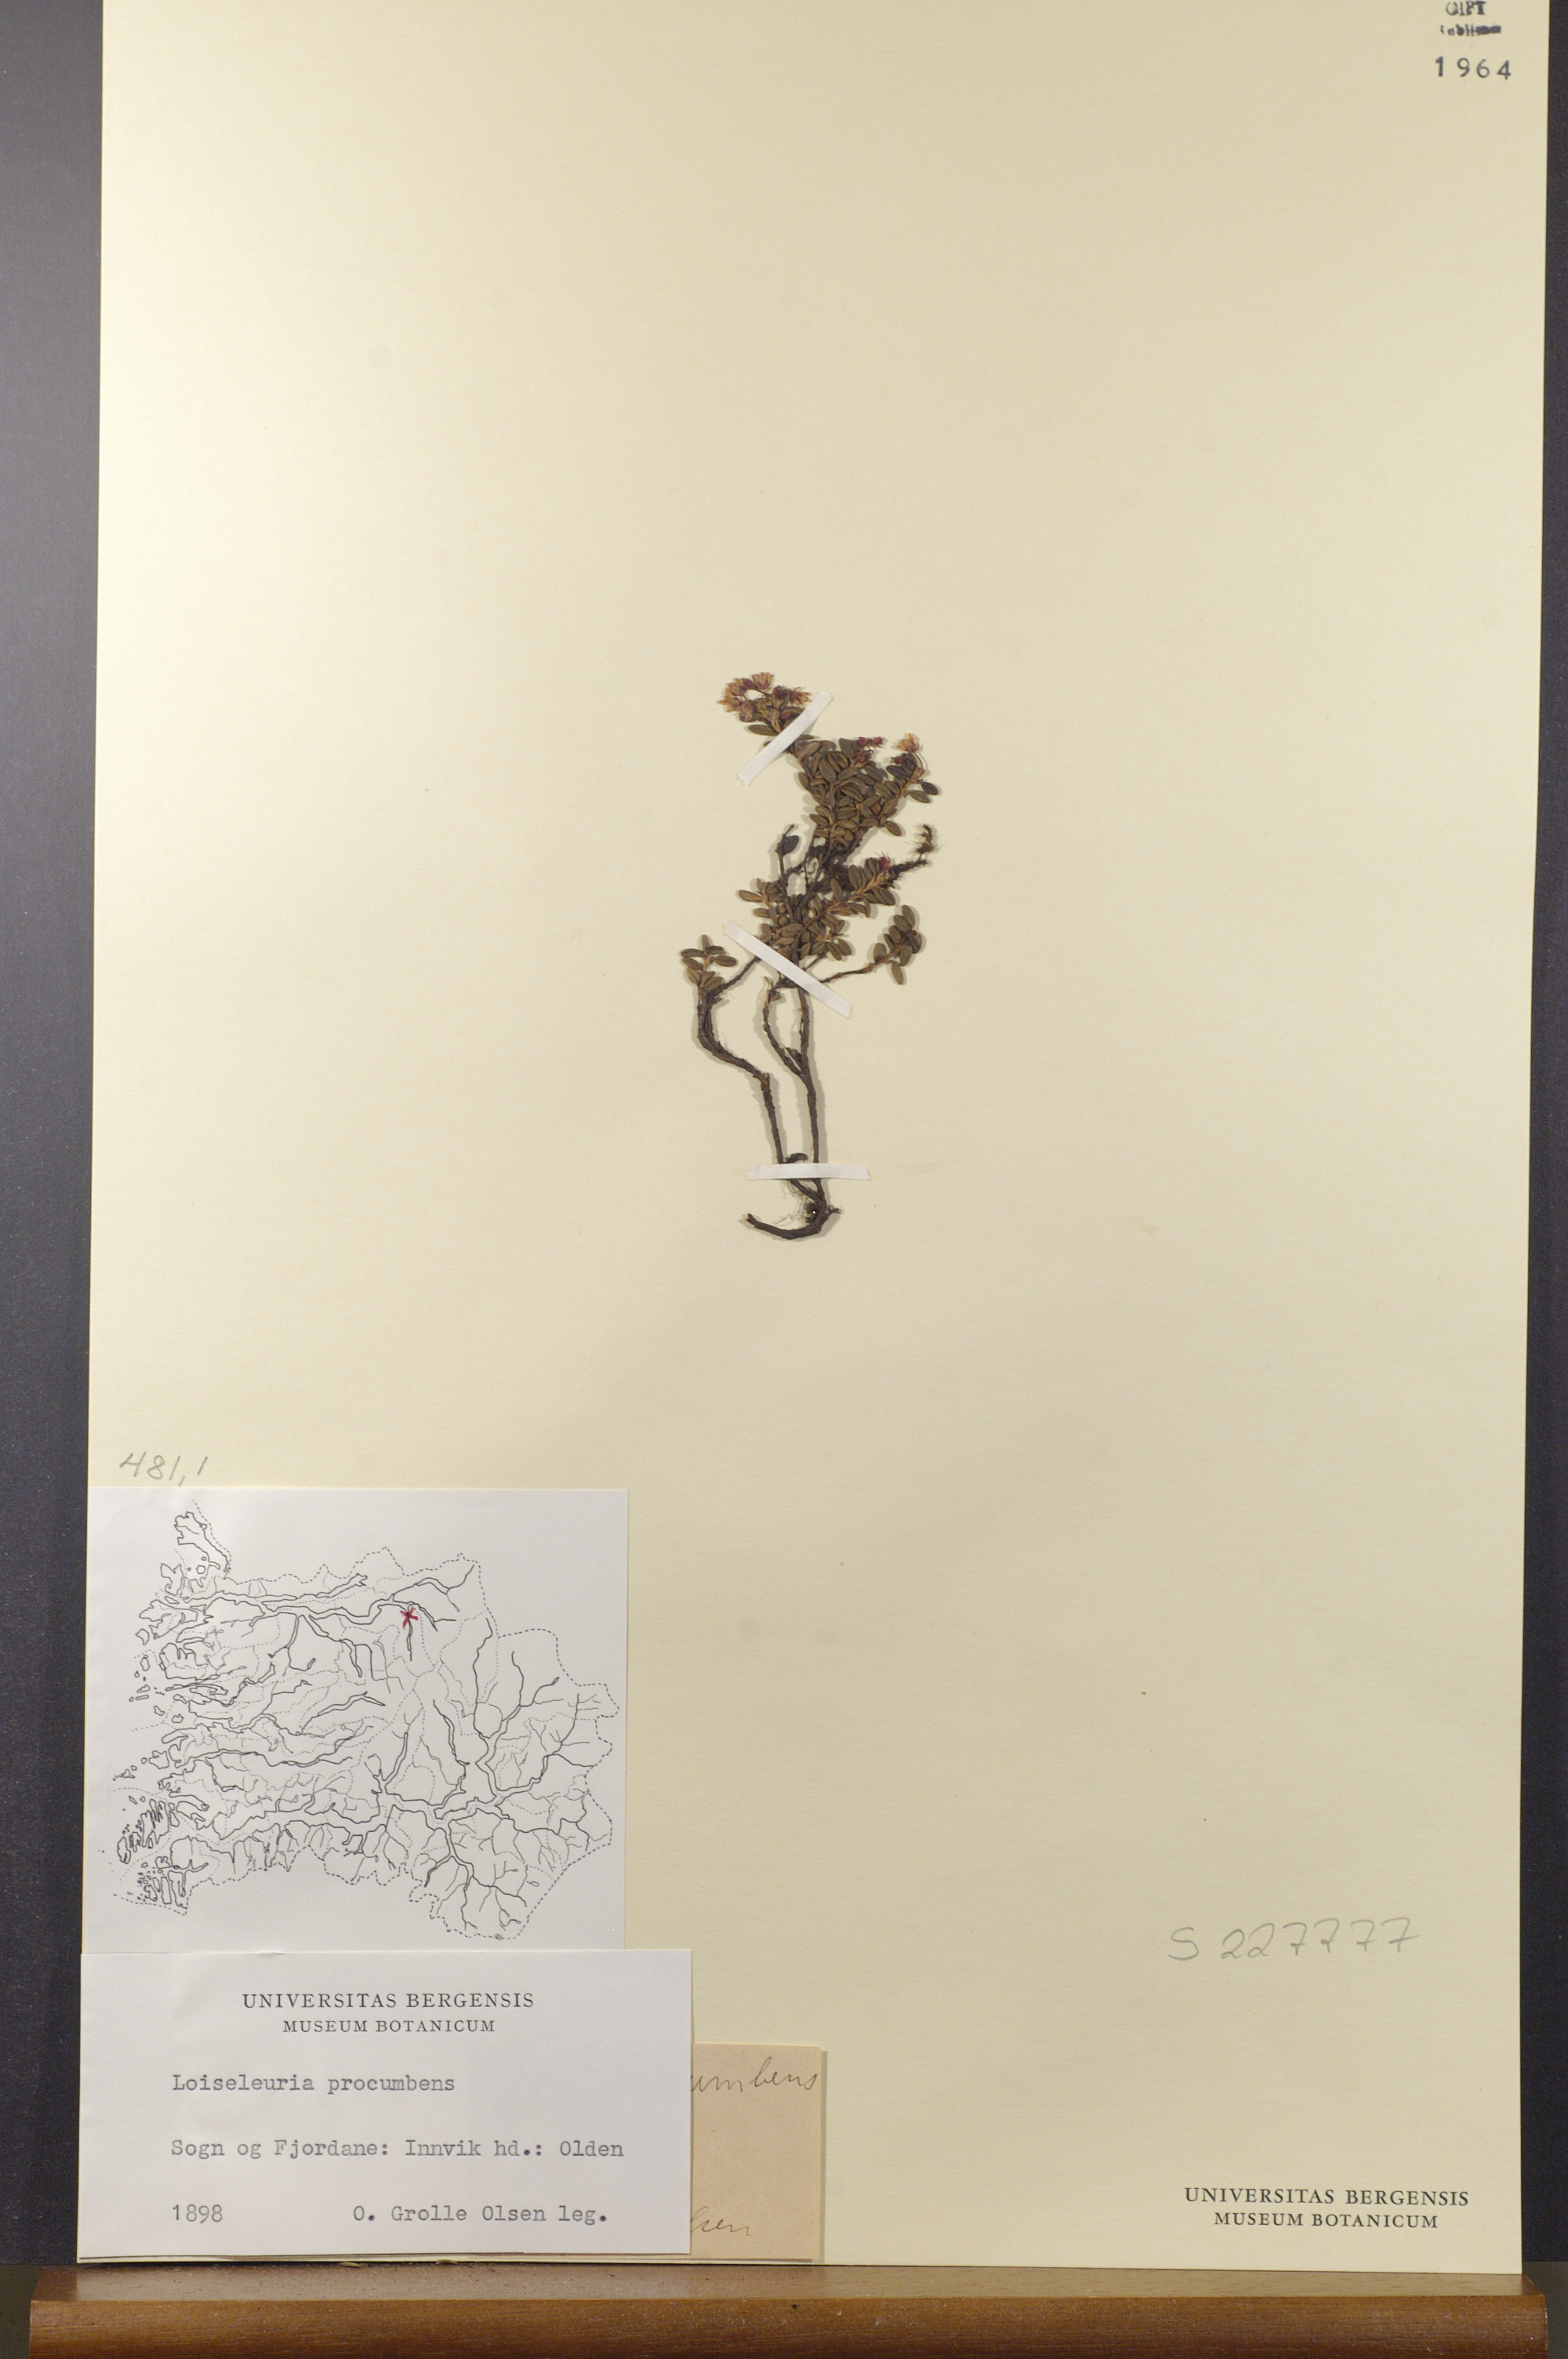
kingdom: Plantae
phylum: Tracheophyta
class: Magnoliopsida
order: Ericales
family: Ericaceae
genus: Kalmia
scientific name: Kalmia procumbens
